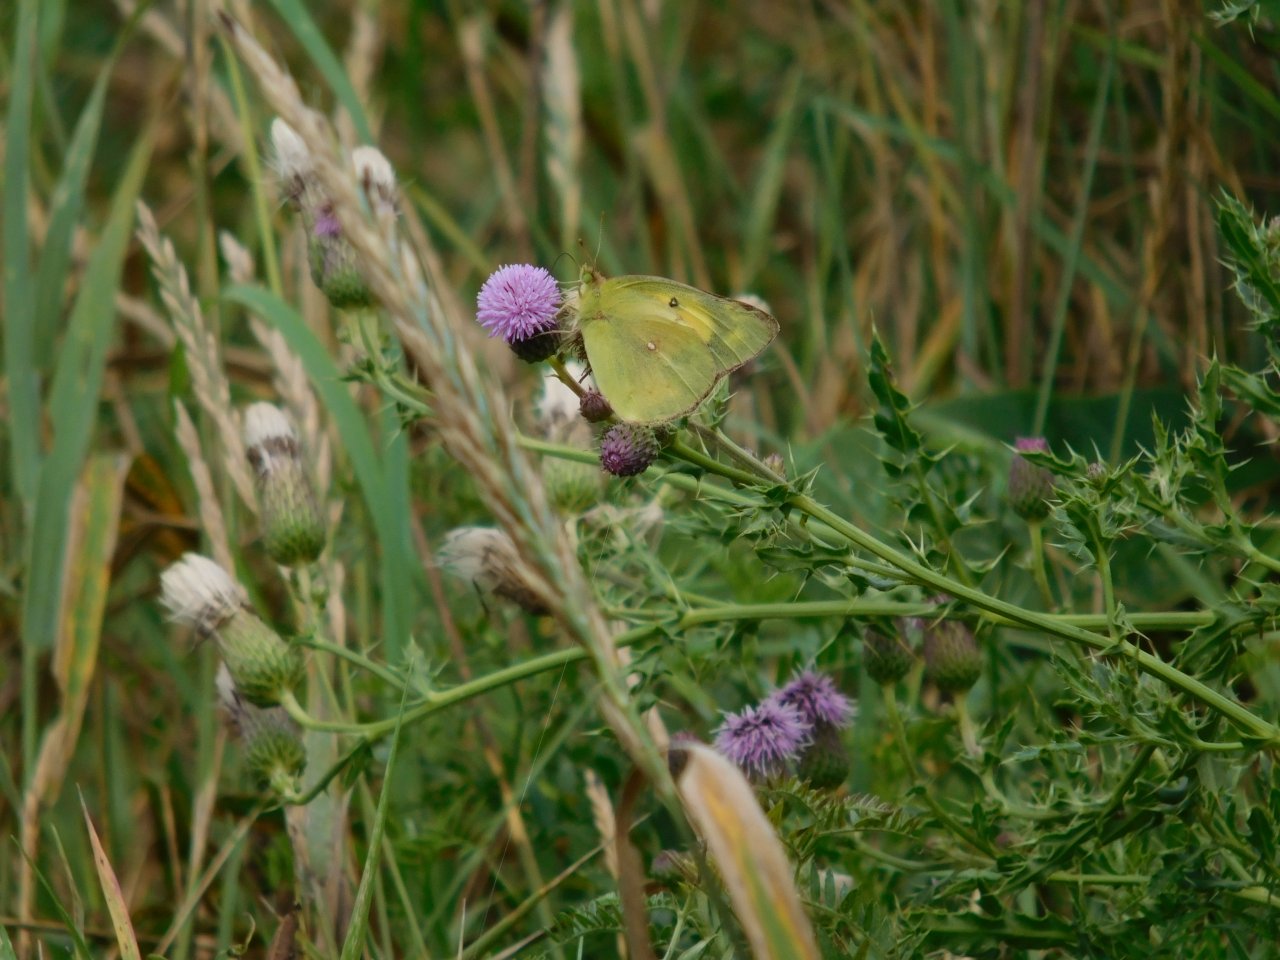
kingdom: Animalia
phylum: Arthropoda
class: Insecta
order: Lepidoptera
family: Pieridae
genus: Colias
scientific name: Colias philodice
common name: Clouded Sulphur
